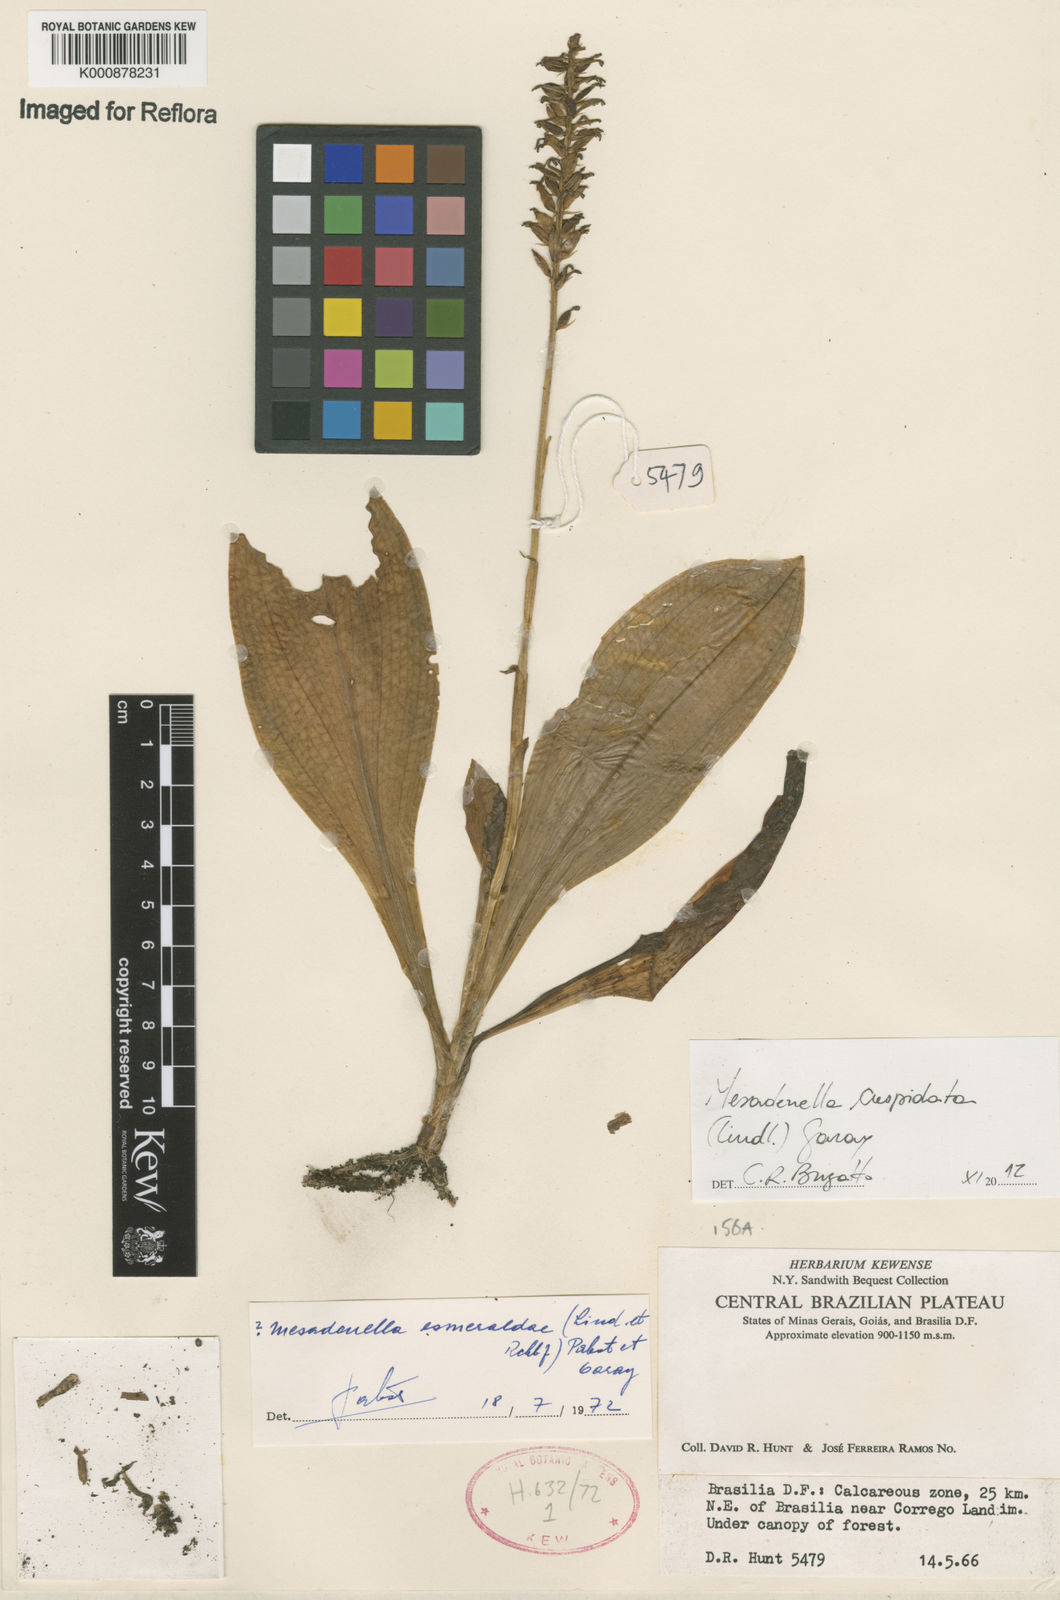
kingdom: Plantae
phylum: Tracheophyta
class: Liliopsida
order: Asparagales
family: Orchidaceae
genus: Mesadenella
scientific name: Mesadenella cuspidata
